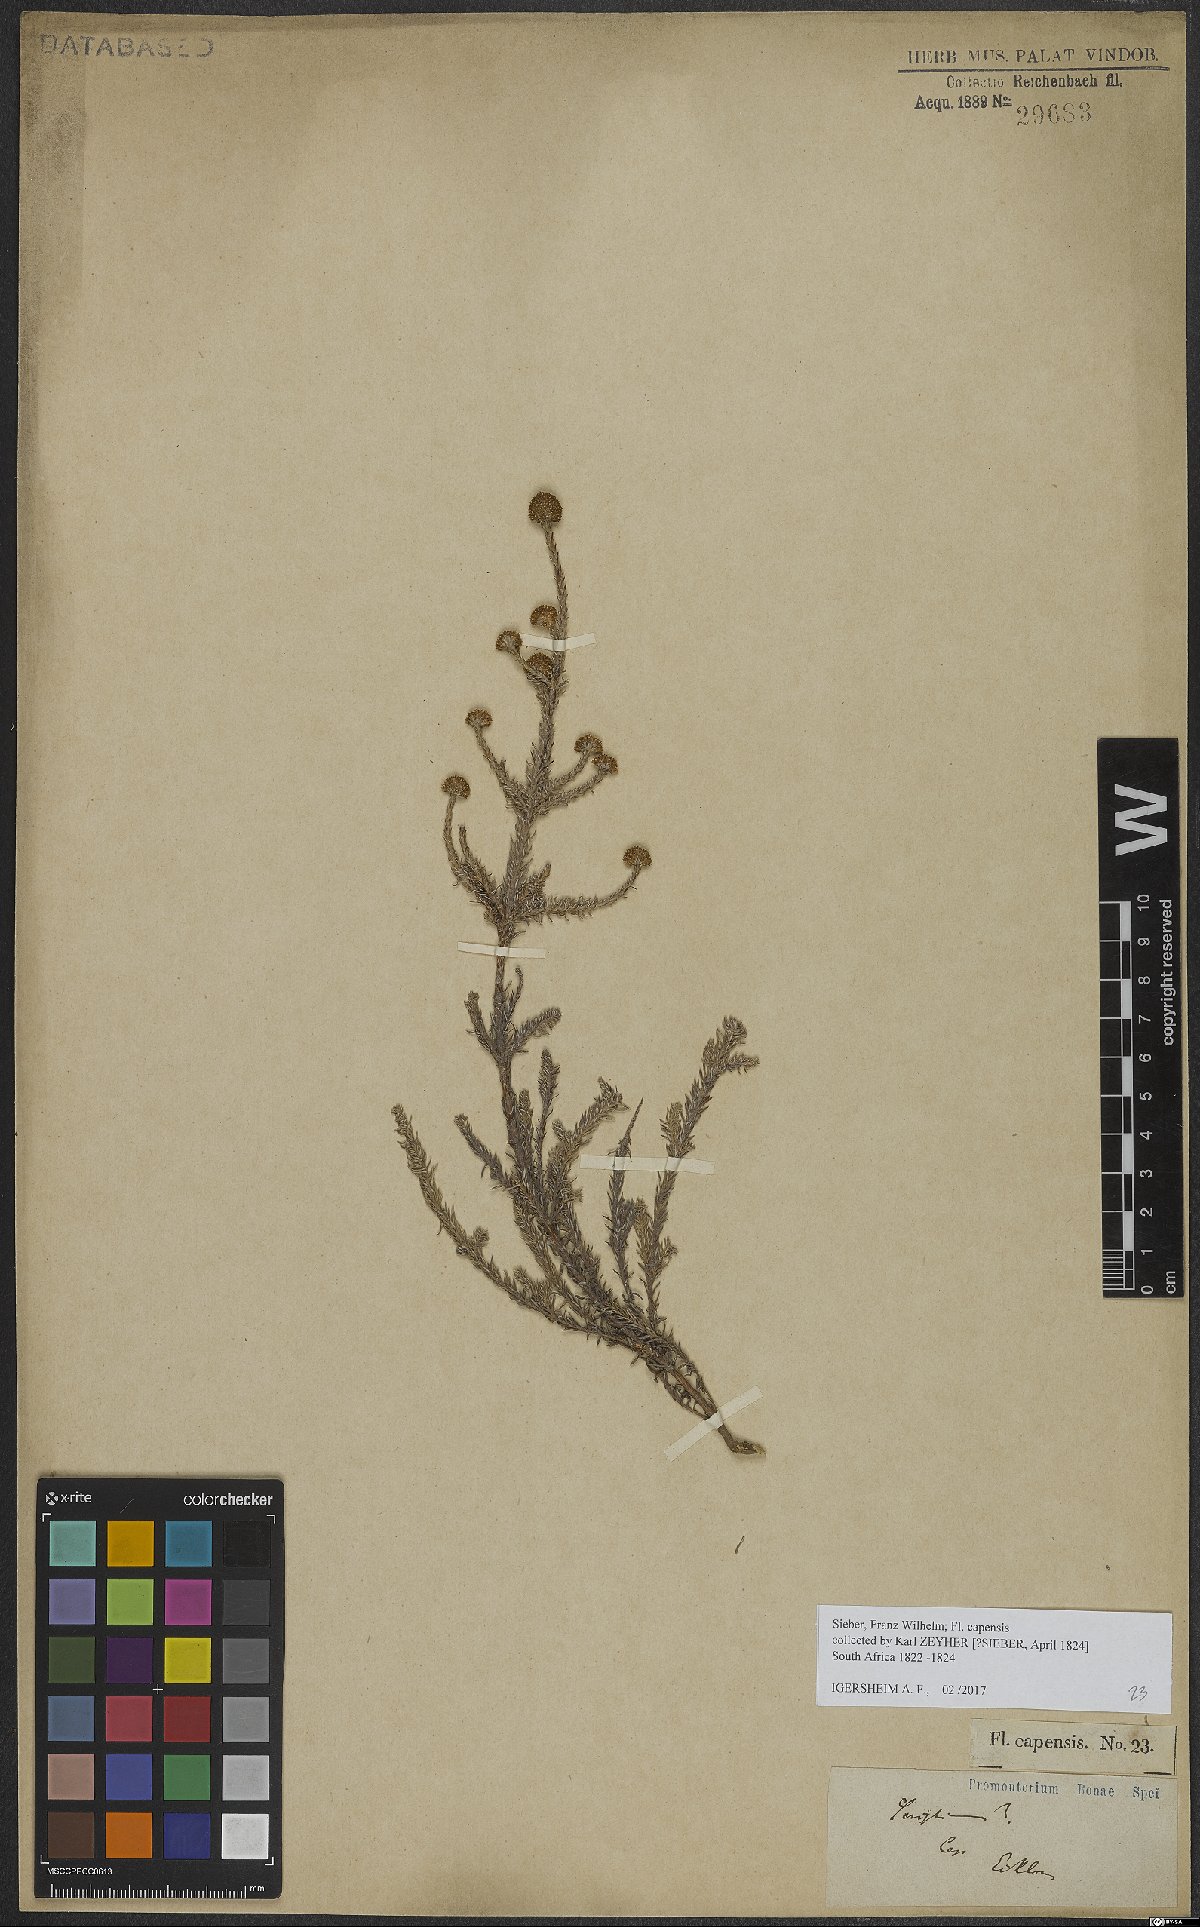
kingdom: Plantae
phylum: Tracheophyta
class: Magnoliopsida
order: Asterales
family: Asteraceae
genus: Stoebe
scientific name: Stoebe capitata
